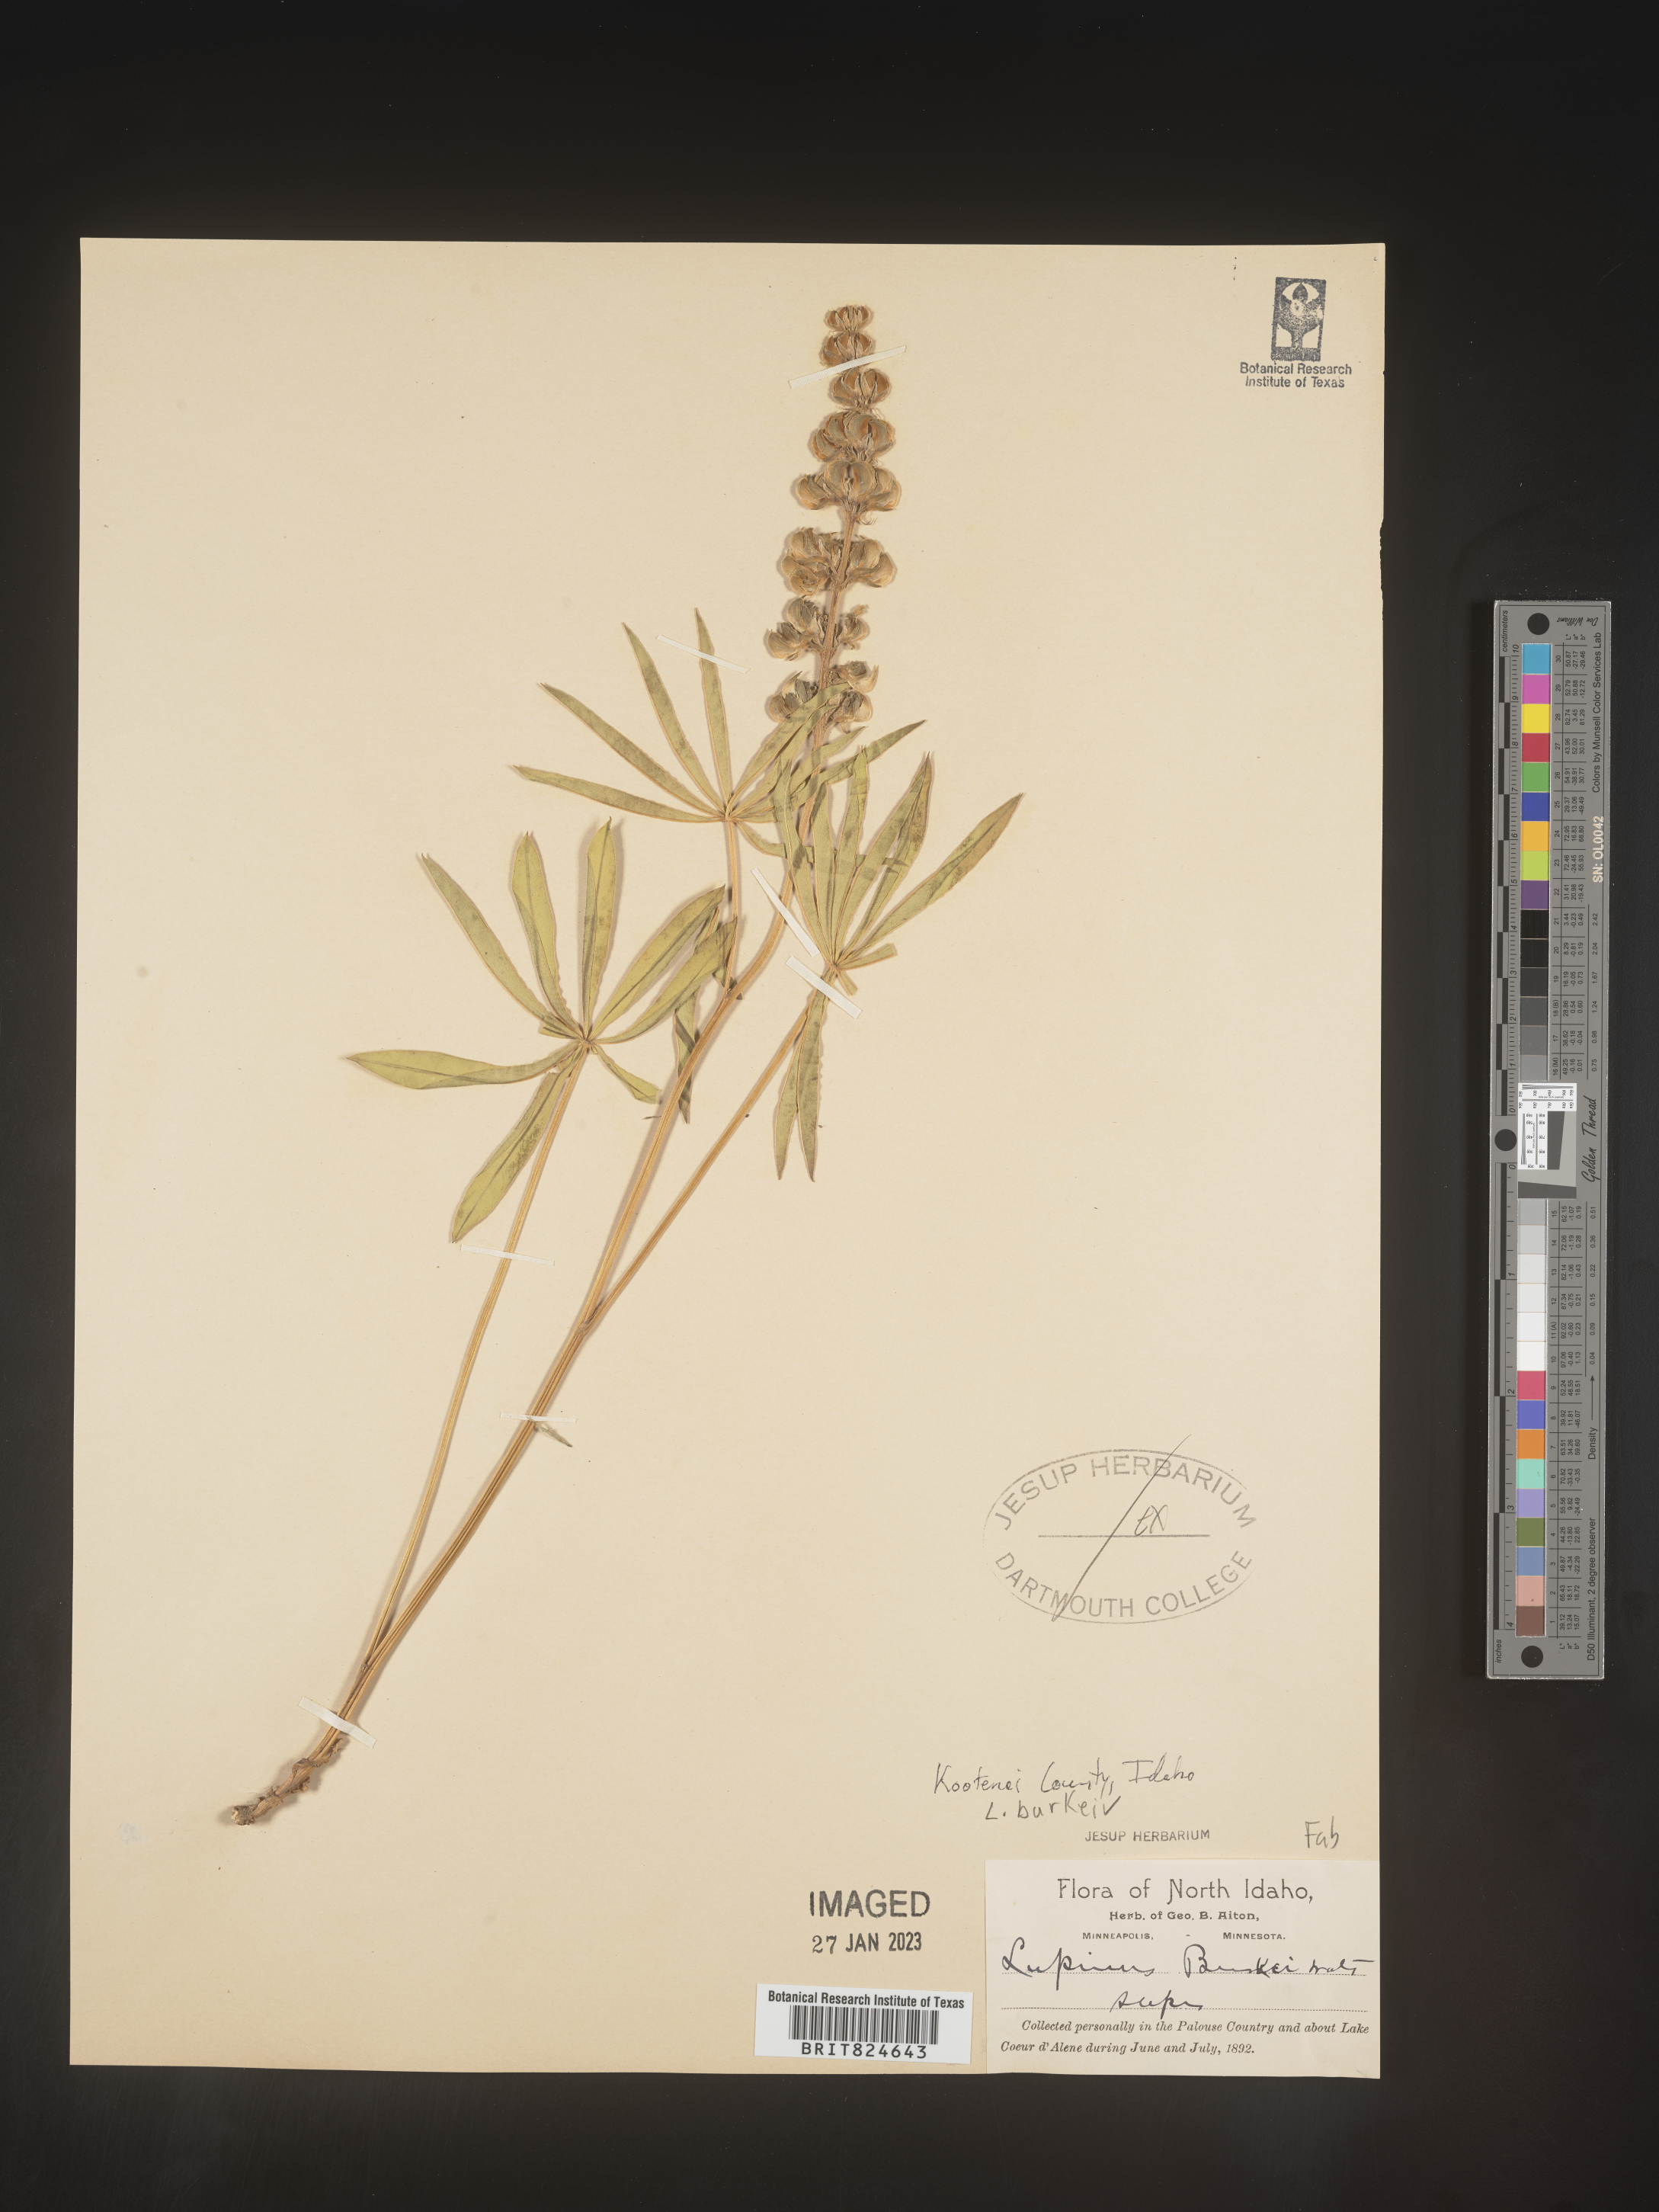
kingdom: Plantae
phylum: Tracheophyta
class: Magnoliopsida
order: Fabales
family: Fabaceae
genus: Lupinus
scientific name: Lupinus
